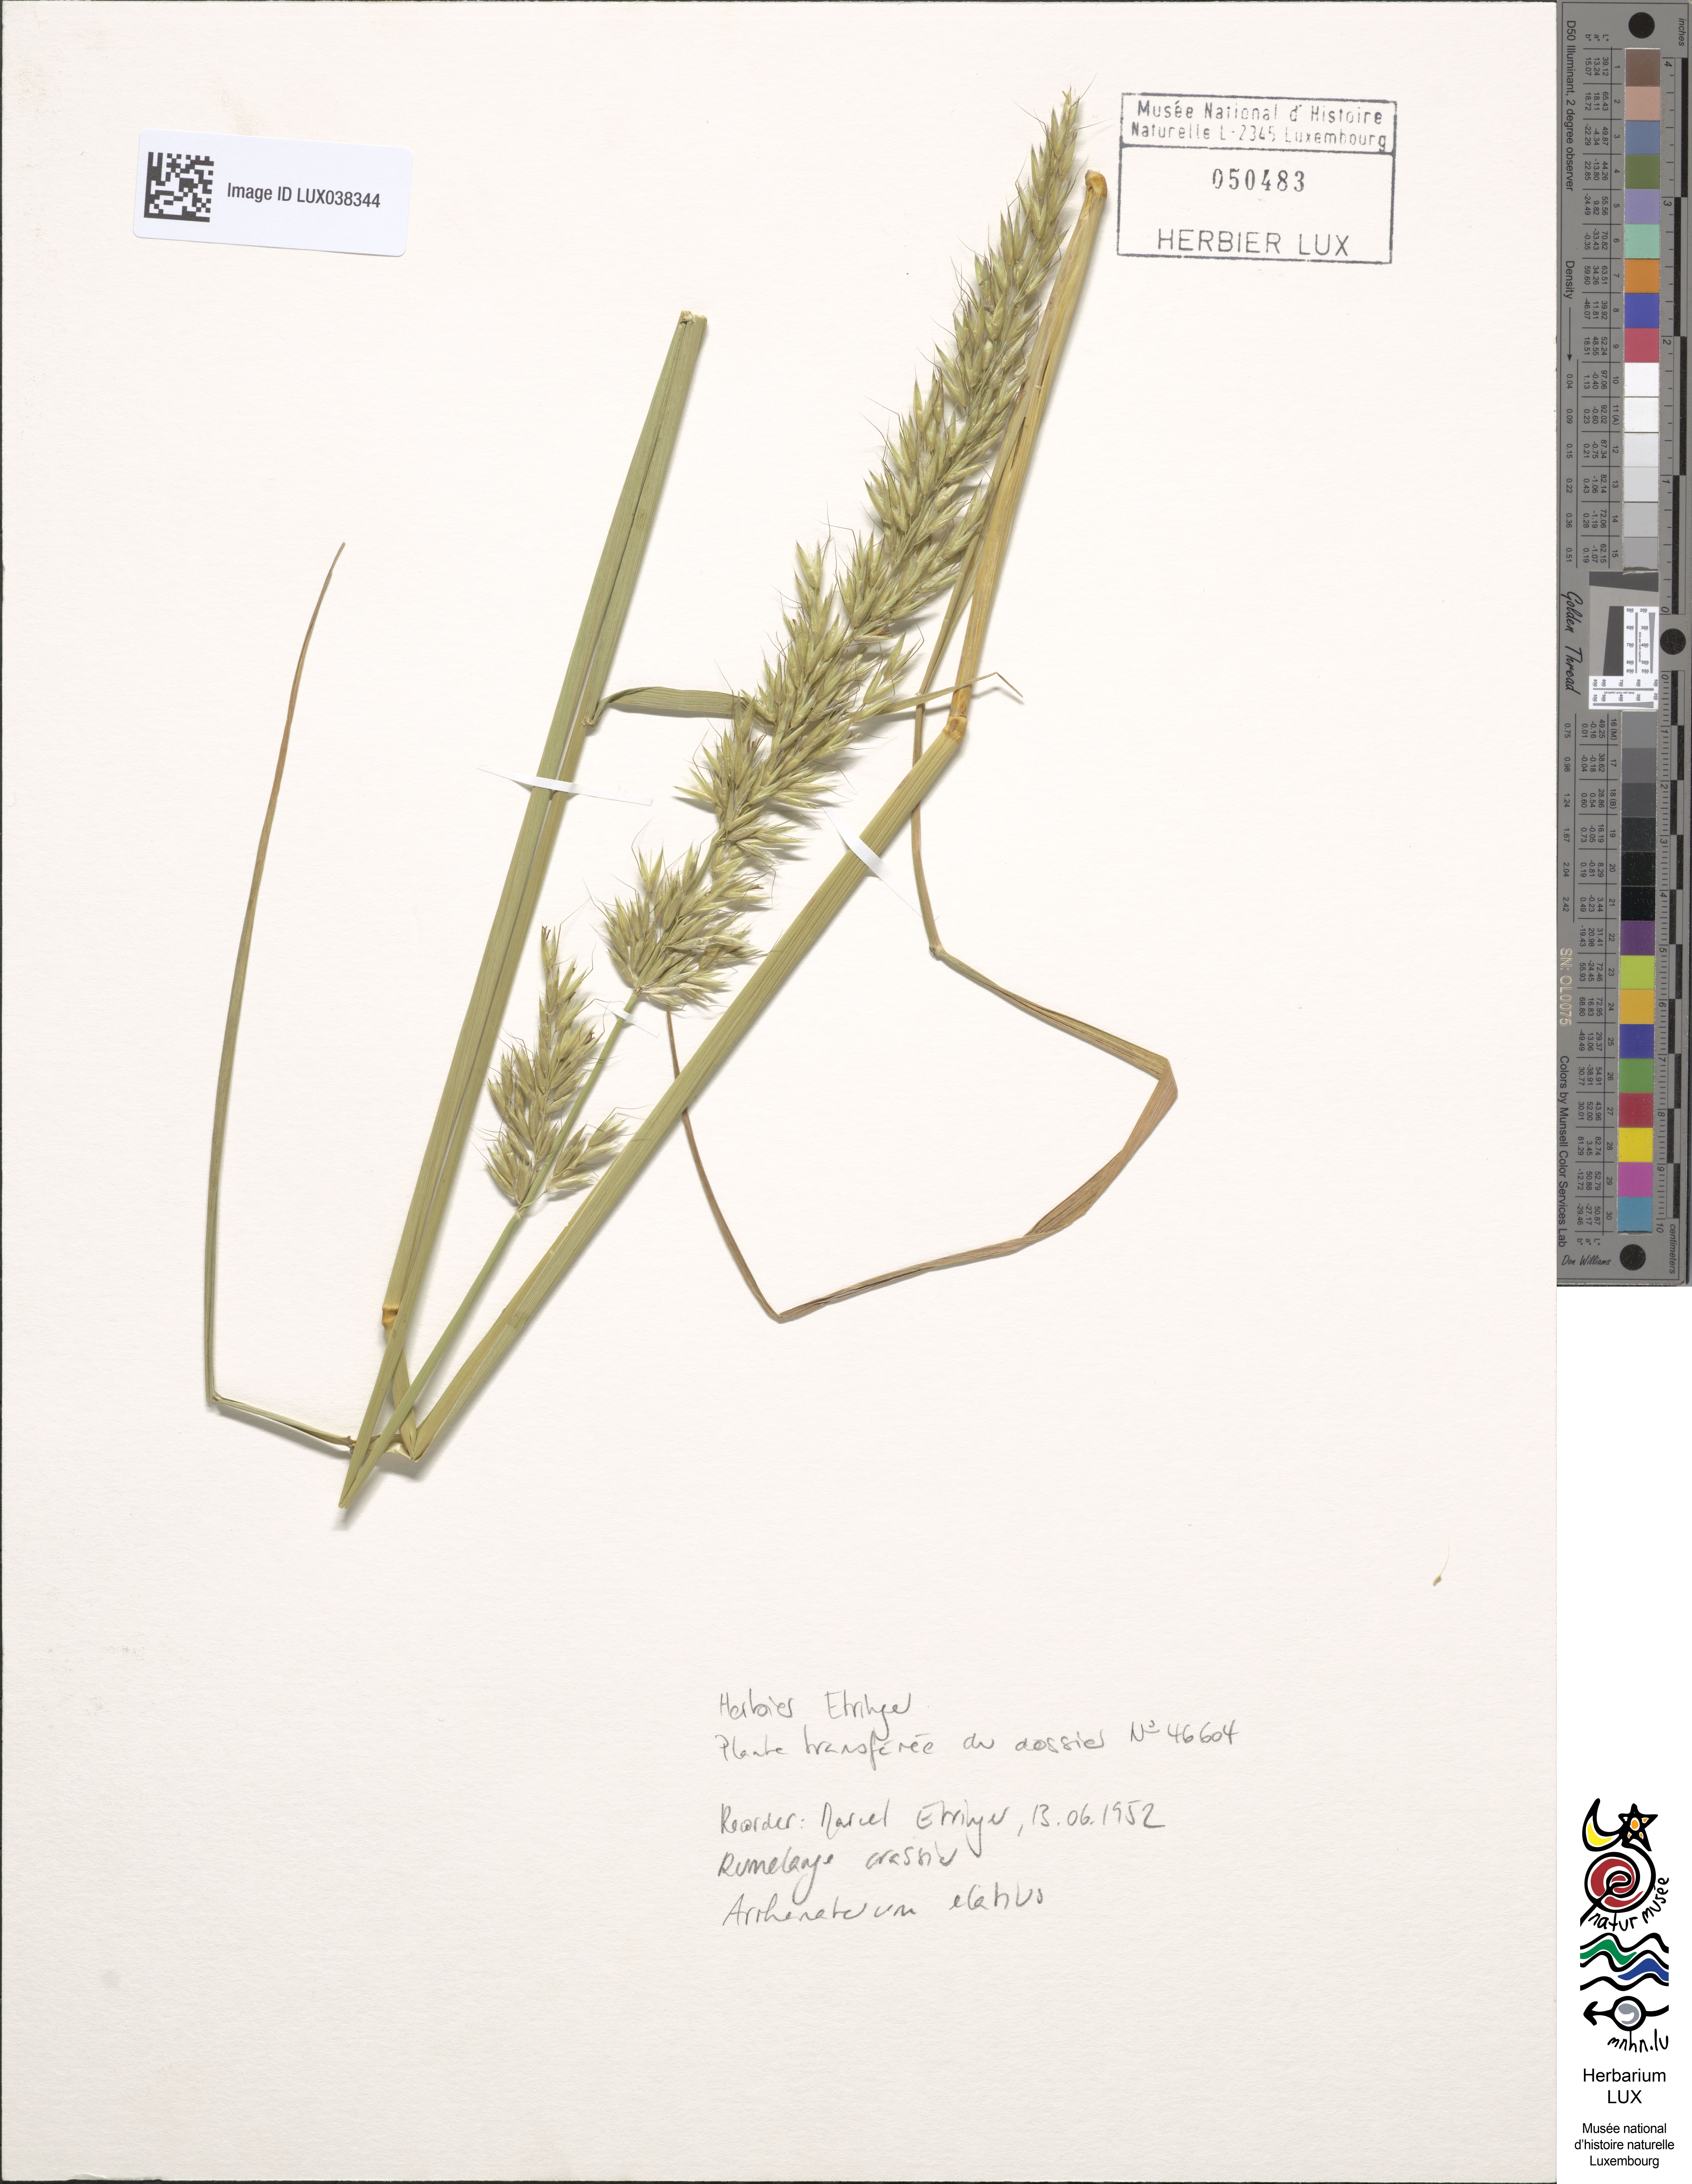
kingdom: Plantae
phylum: Tracheophyta
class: Liliopsida
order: Poales
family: Poaceae
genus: Arrhenatherum
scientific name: Arrhenatherum elatius
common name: Tall oatgrass
